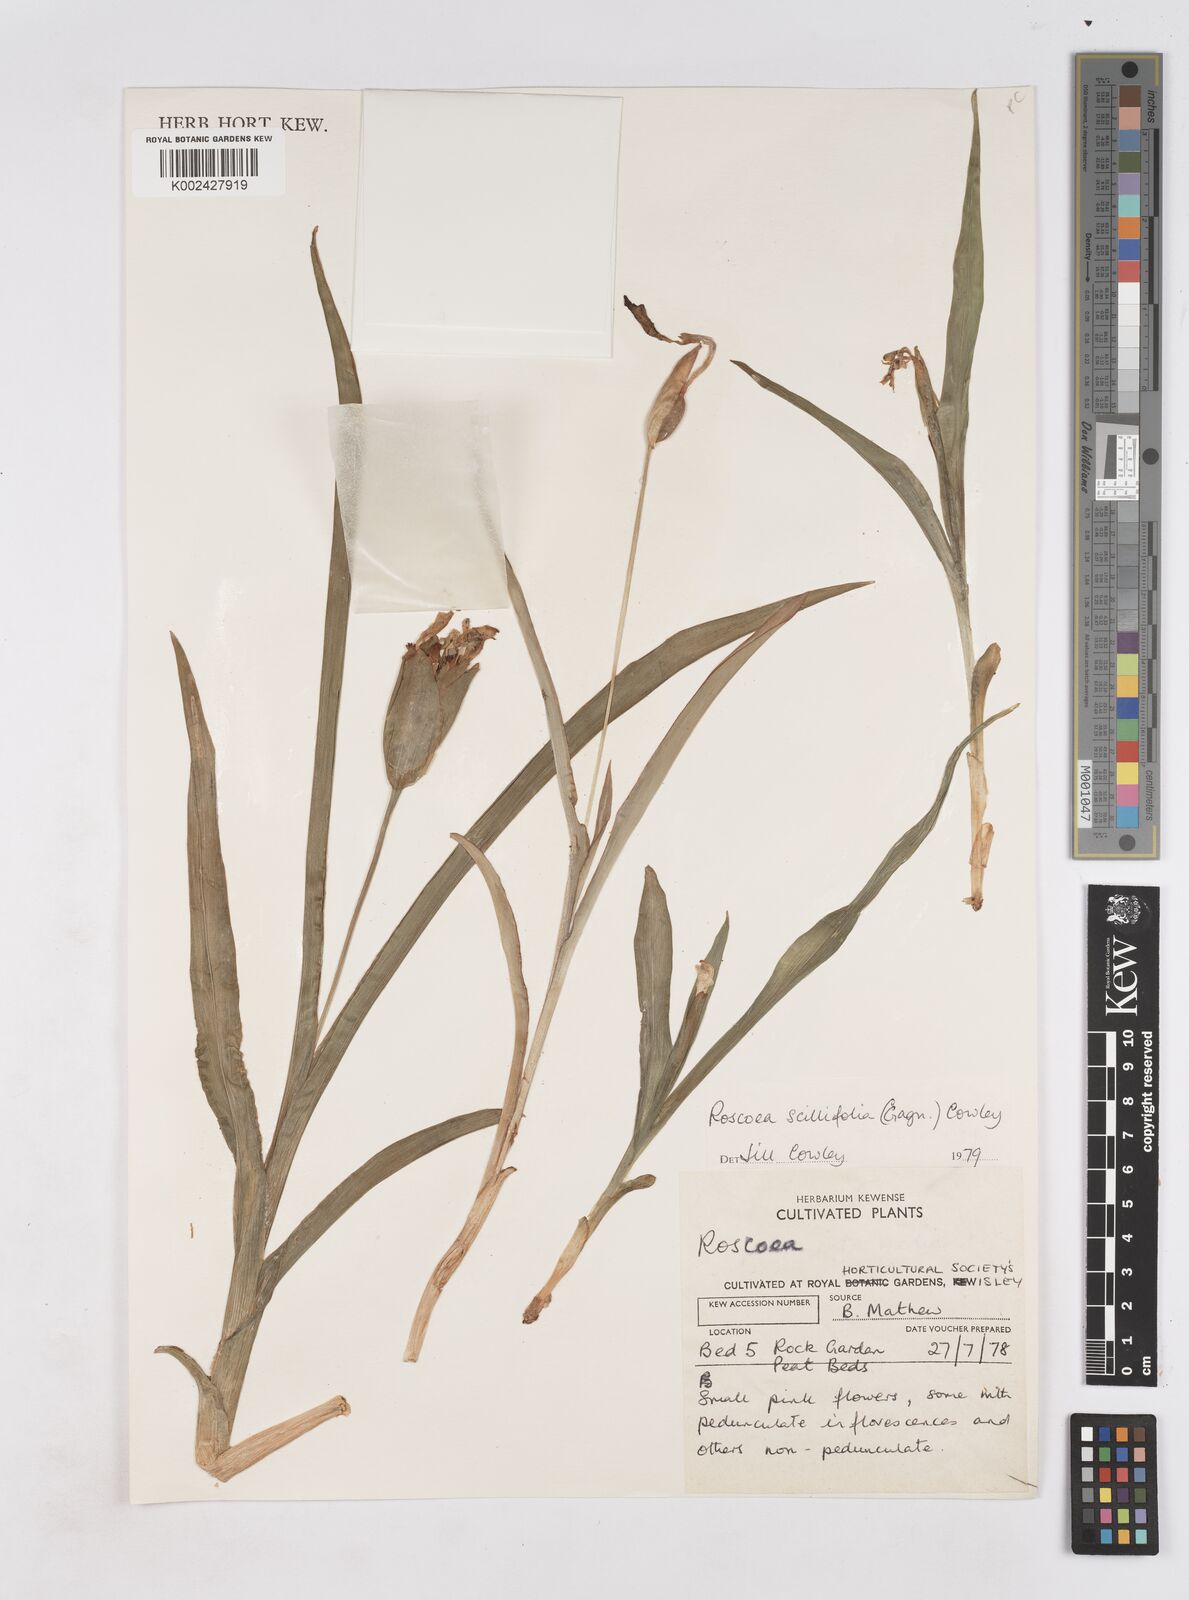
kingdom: Plantae
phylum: Tracheophyta
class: Liliopsida
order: Zingiberales
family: Zingiberaceae
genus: Roscoea
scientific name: Roscoea scillifolia
